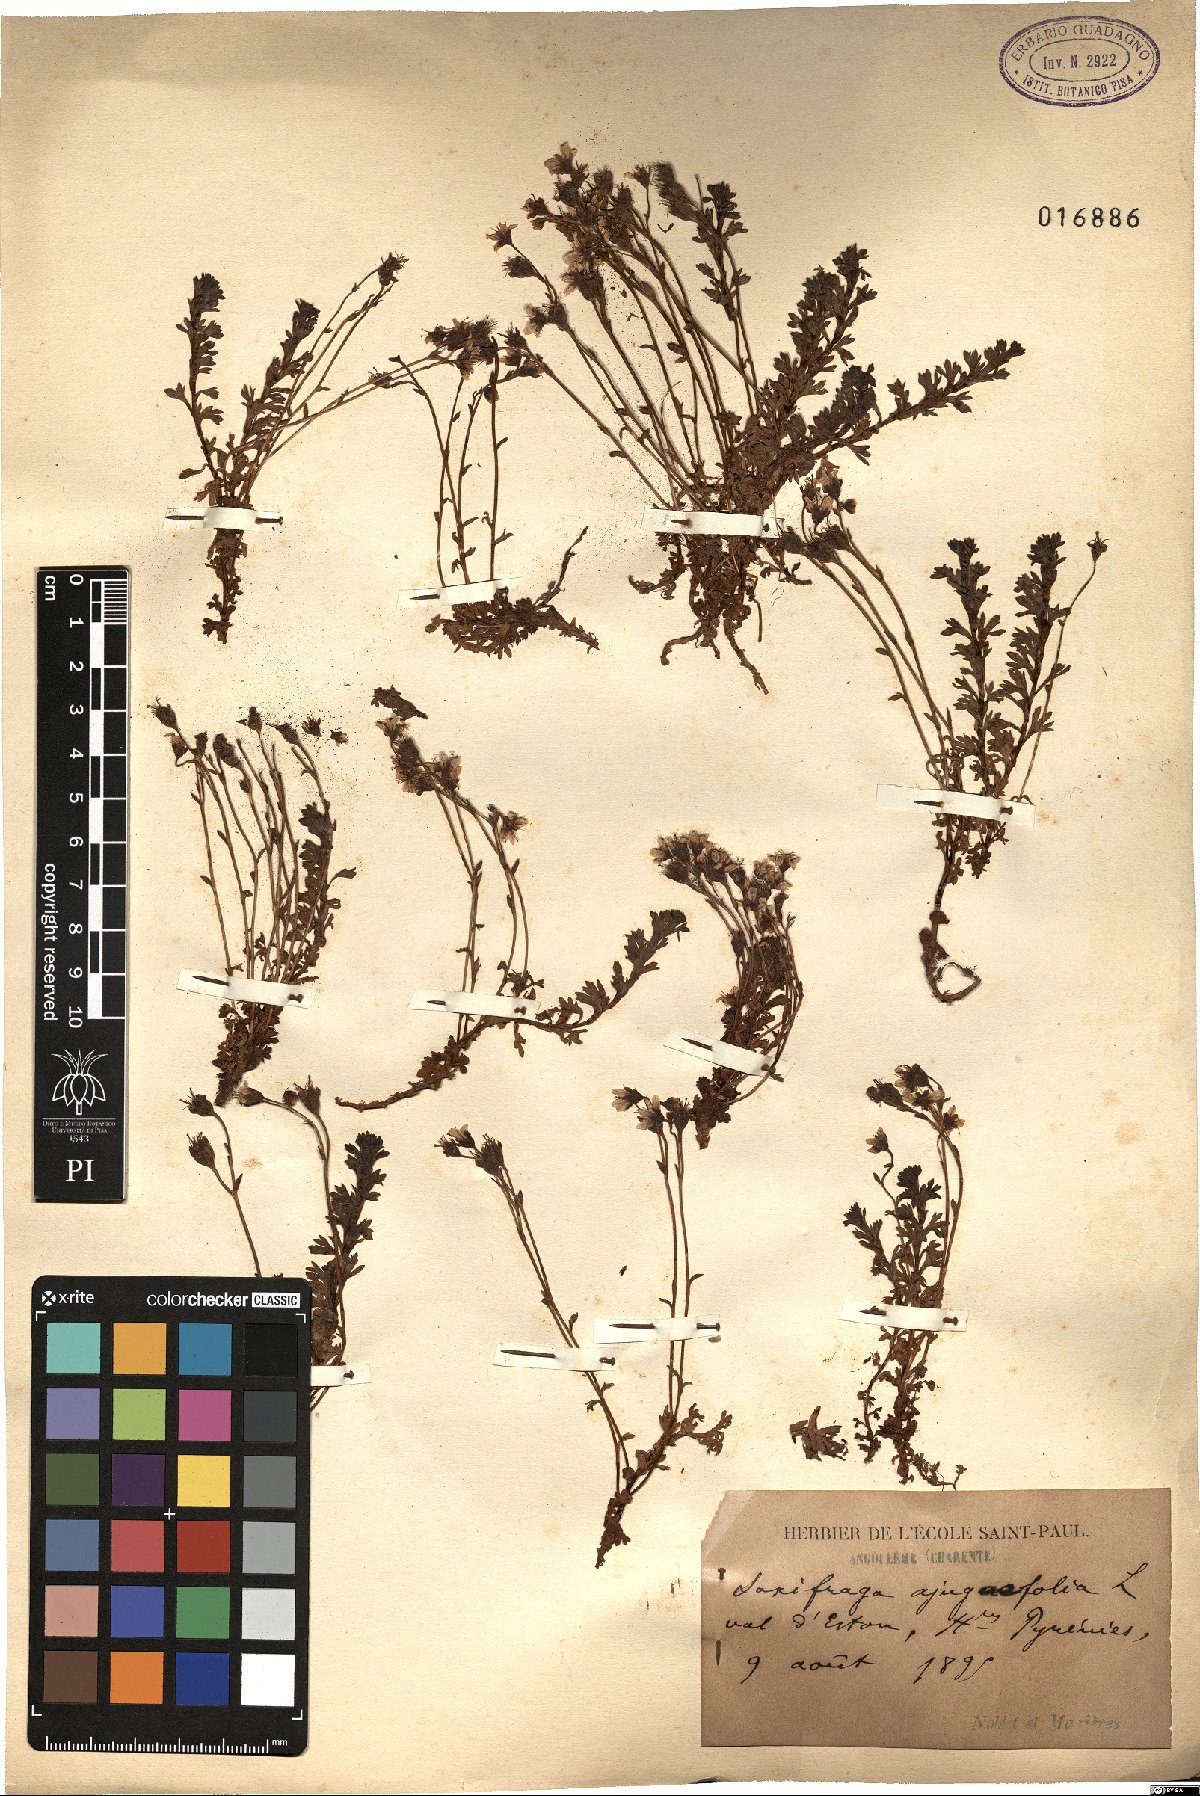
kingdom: Plantae
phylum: Tracheophyta
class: Magnoliopsida
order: Saxifragales
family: Saxifragaceae
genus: Saxifraga
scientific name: Saxifraga pedemontana
